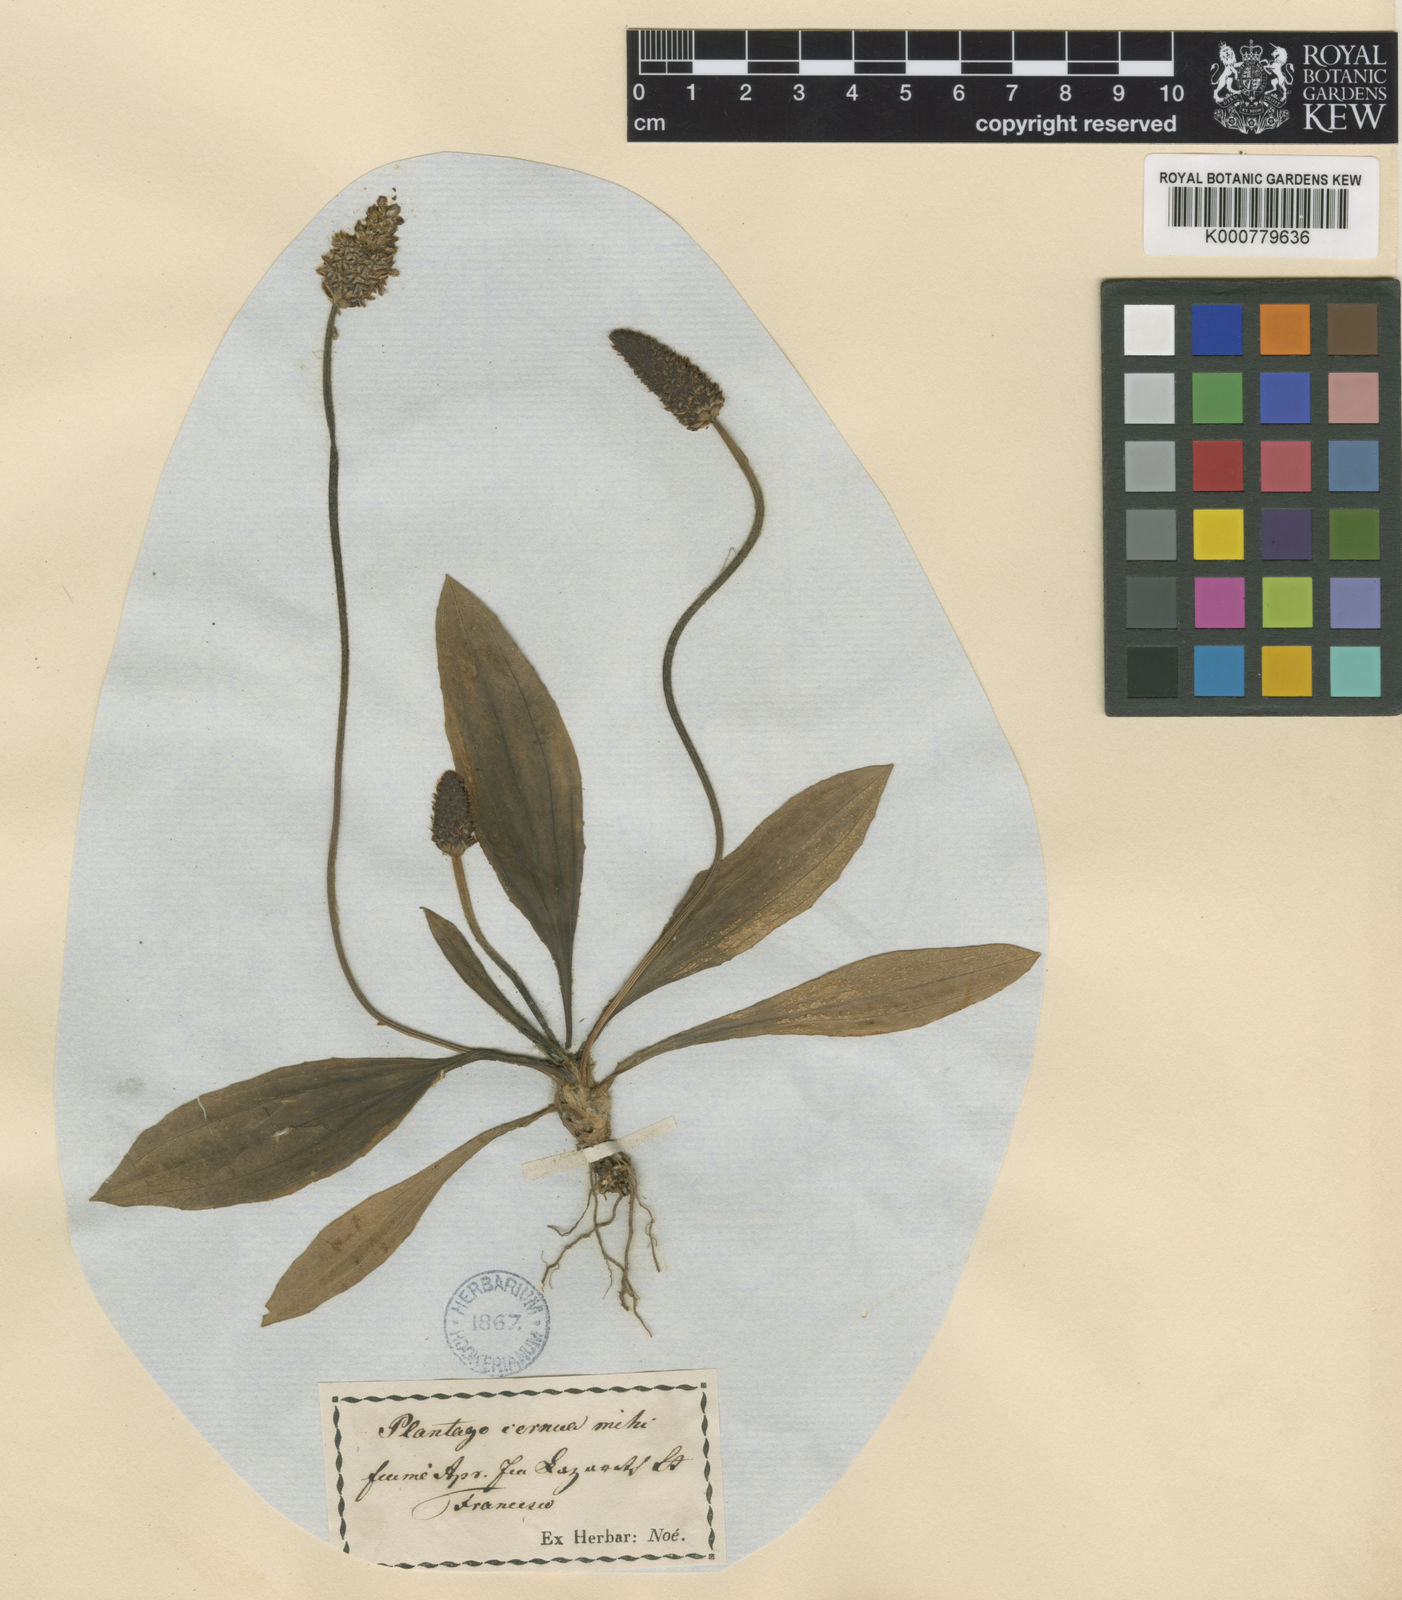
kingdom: Plantae
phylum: Tracheophyta
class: Magnoliopsida
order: Lamiales
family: Plantaginaceae
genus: Plantago
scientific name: Plantago lanceolata
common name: Ribwort plantain
